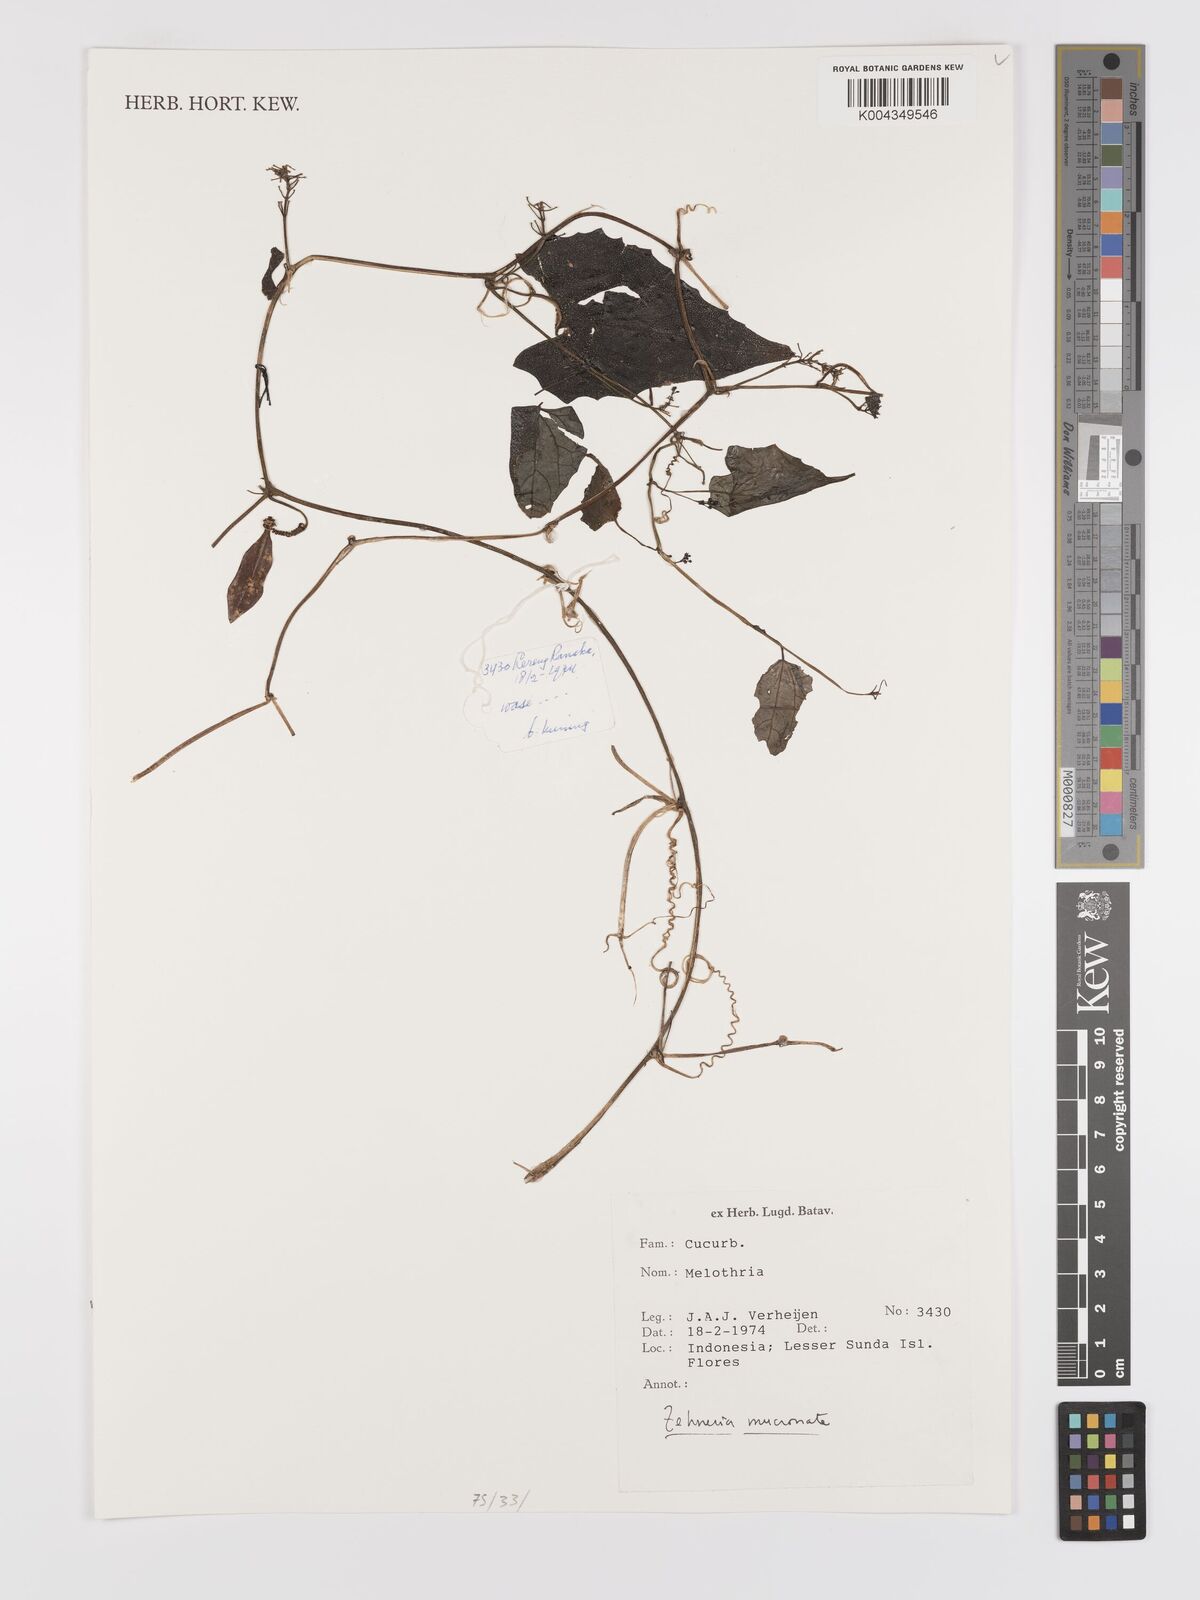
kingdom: Plantae
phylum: Tracheophyta
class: Magnoliopsida
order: Cucurbitales
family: Cucurbitaceae
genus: Zehneria
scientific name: Zehneria
